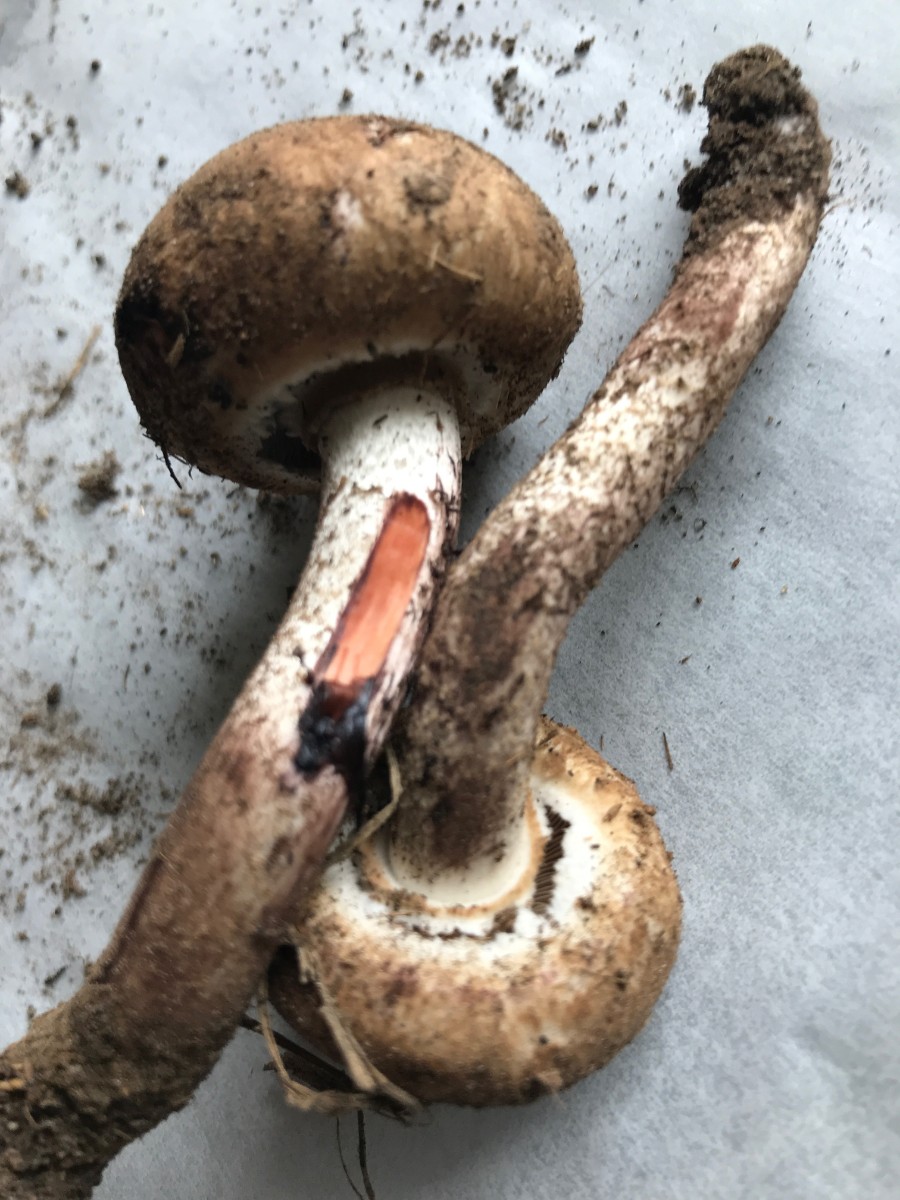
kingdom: Fungi
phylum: Basidiomycota
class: Agaricomycetes
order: Agaricales
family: Agaricaceae
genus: Agaricus
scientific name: Agaricus sylvaticus
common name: lille blod-champignon
